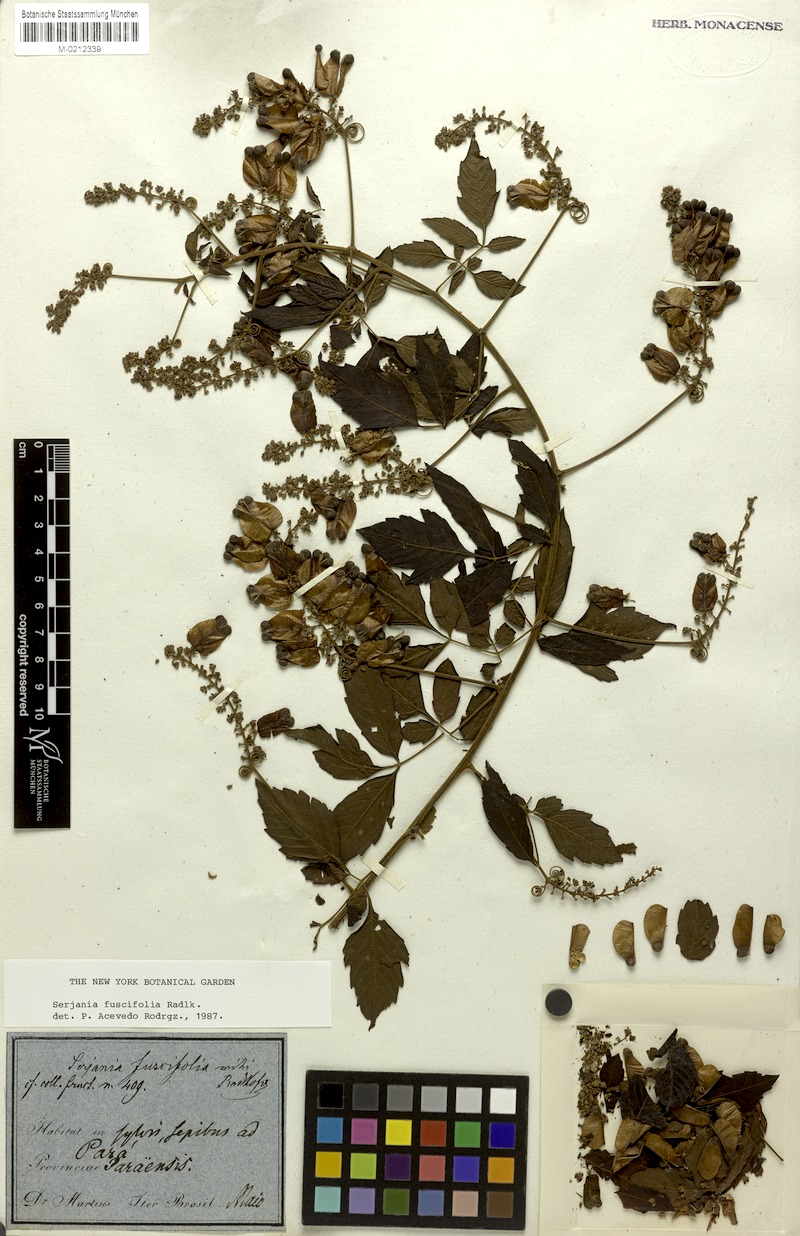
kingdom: Plantae
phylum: Tracheophyta
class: Magnoliopsida
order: Sapindales
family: Sapindaceae
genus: Serjania
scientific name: Serjania fuscifolia
